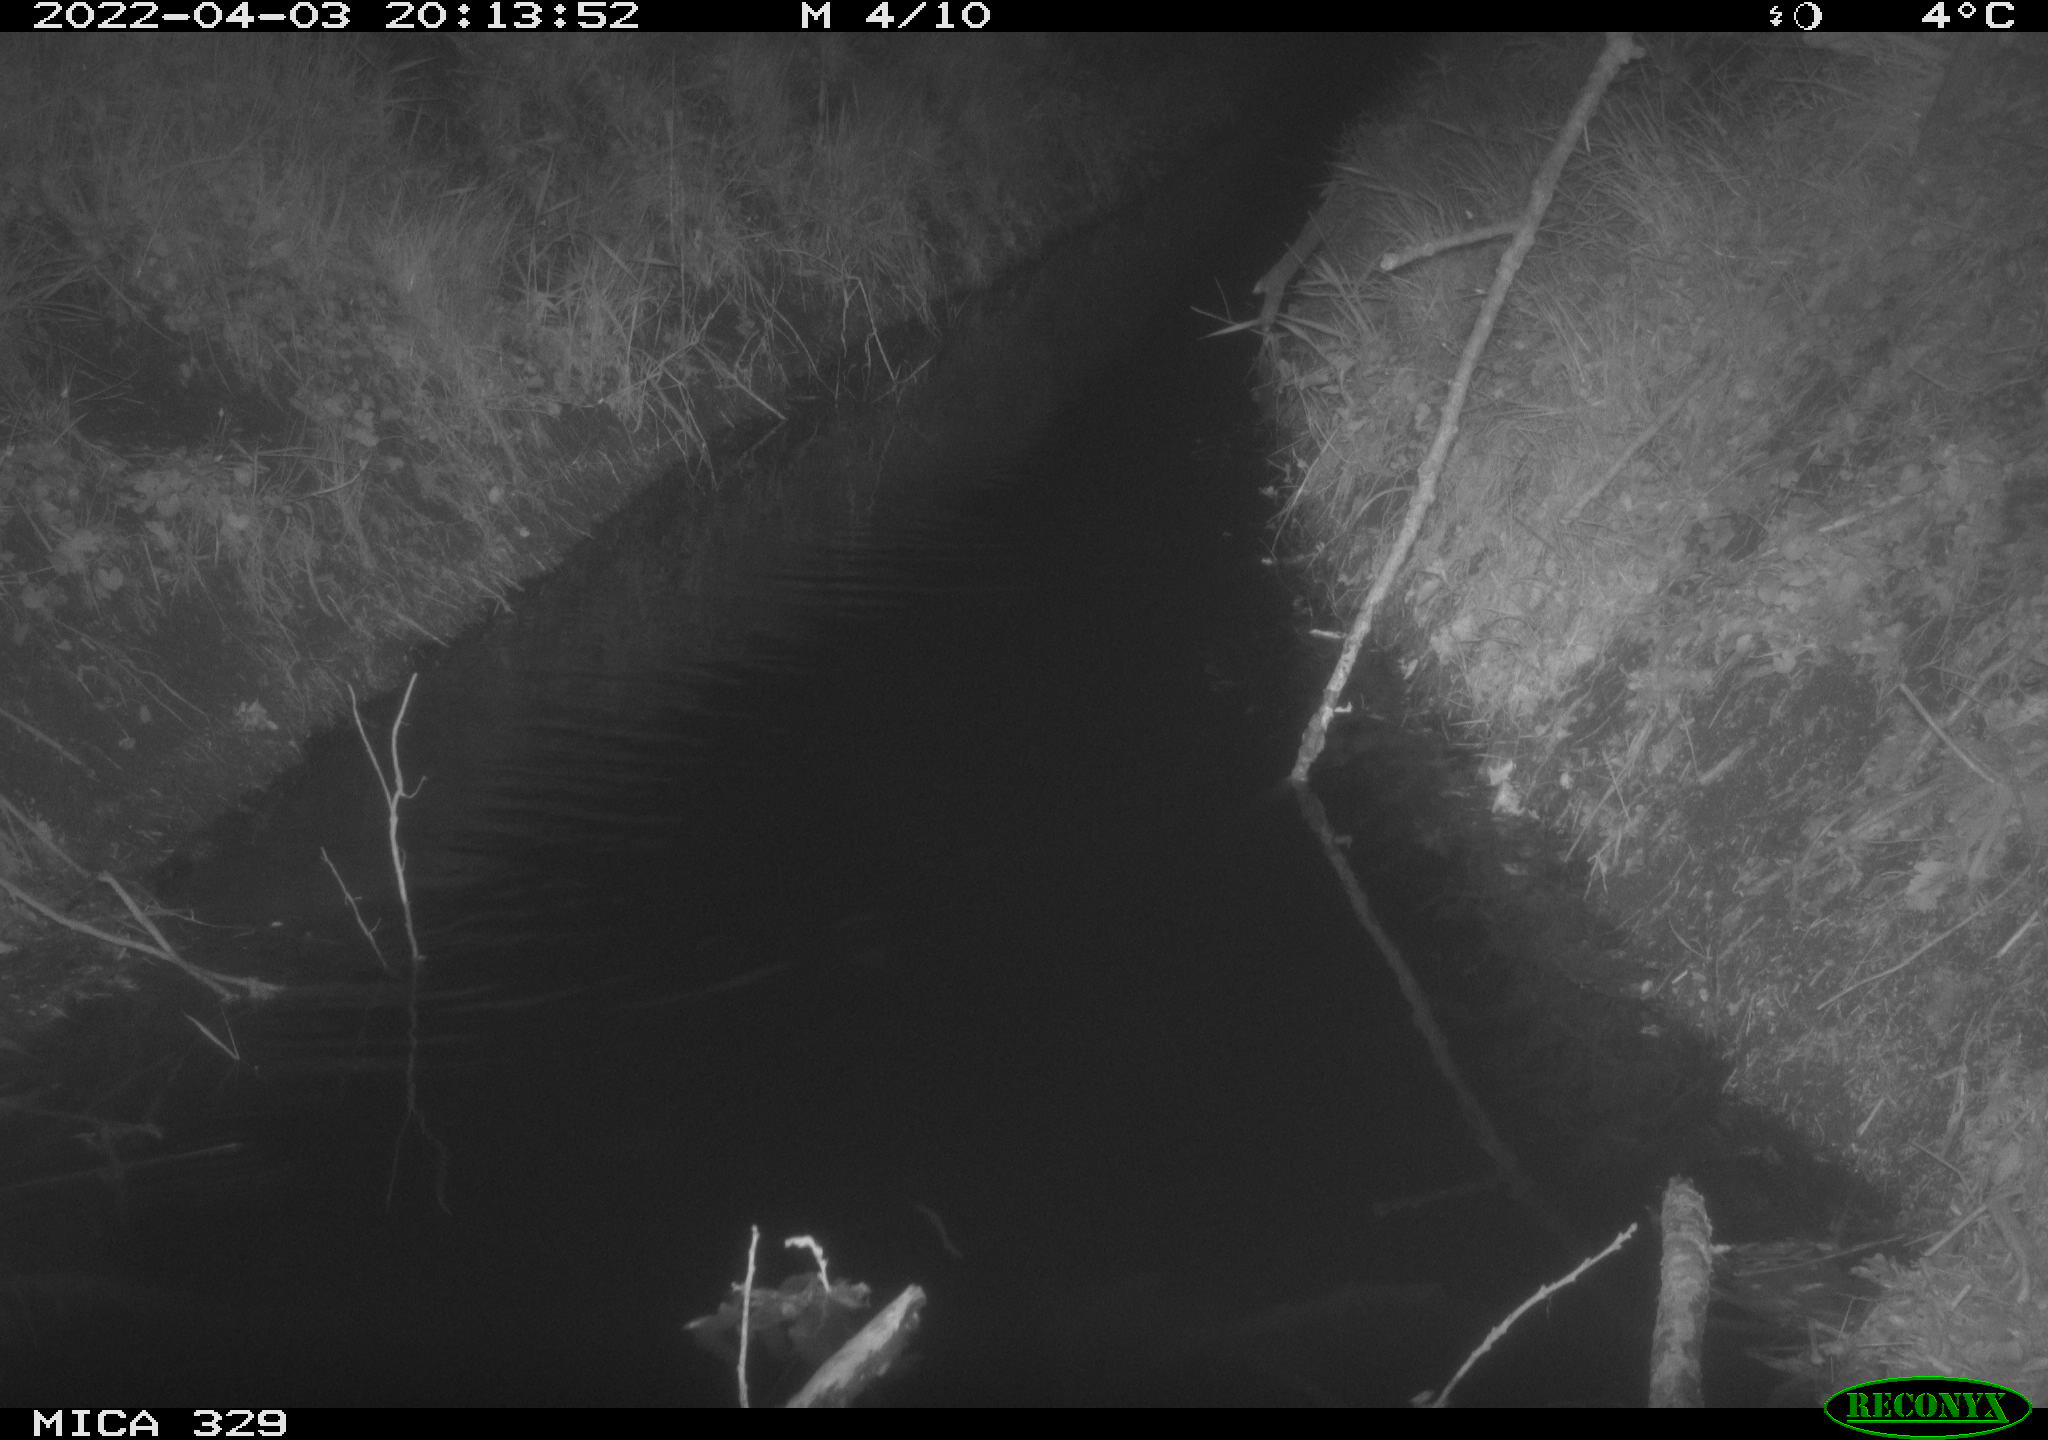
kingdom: Animalia
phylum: Chordata
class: Mammalia
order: Rodentia
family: Muridae
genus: Rattus
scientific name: Rattus norvegicus
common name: Brown rat
